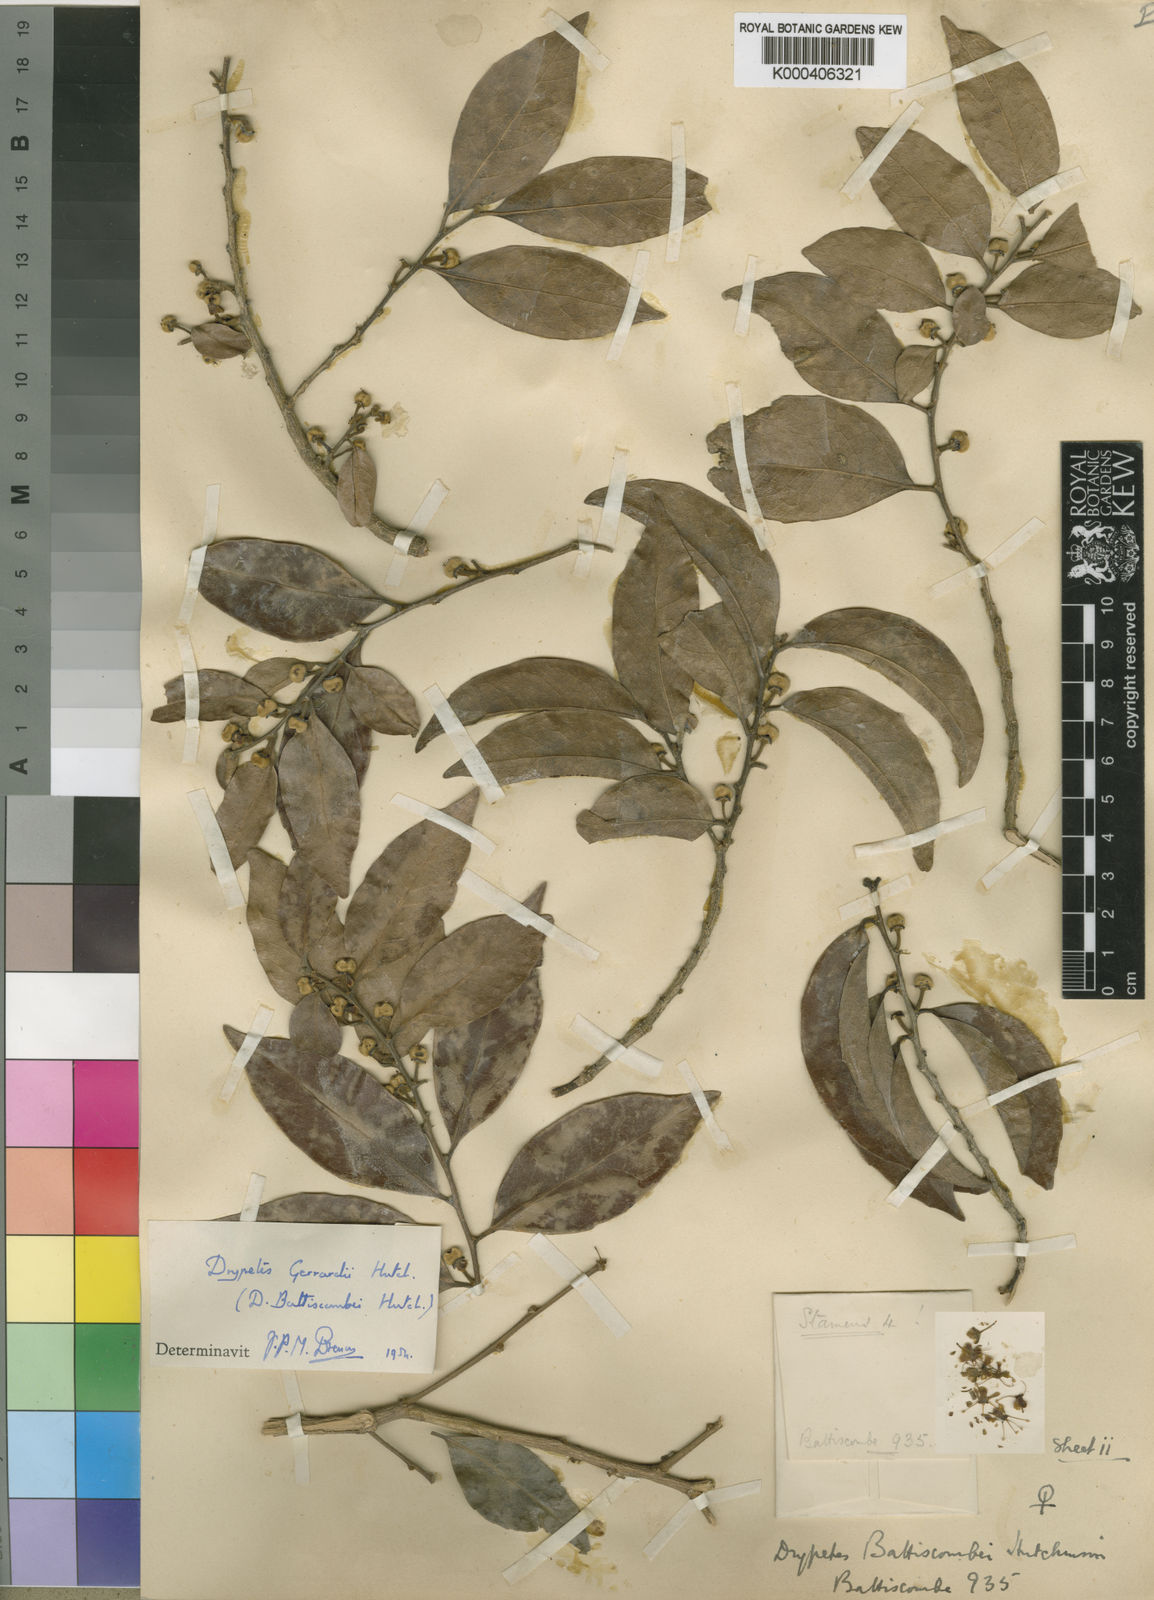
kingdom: Plantae
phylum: Tracheophyta
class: Magnoliopsida
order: Malpighiales
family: Putranjivaceae
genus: Drypetes
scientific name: Drypetes gerrardii
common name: Forest ironplum
